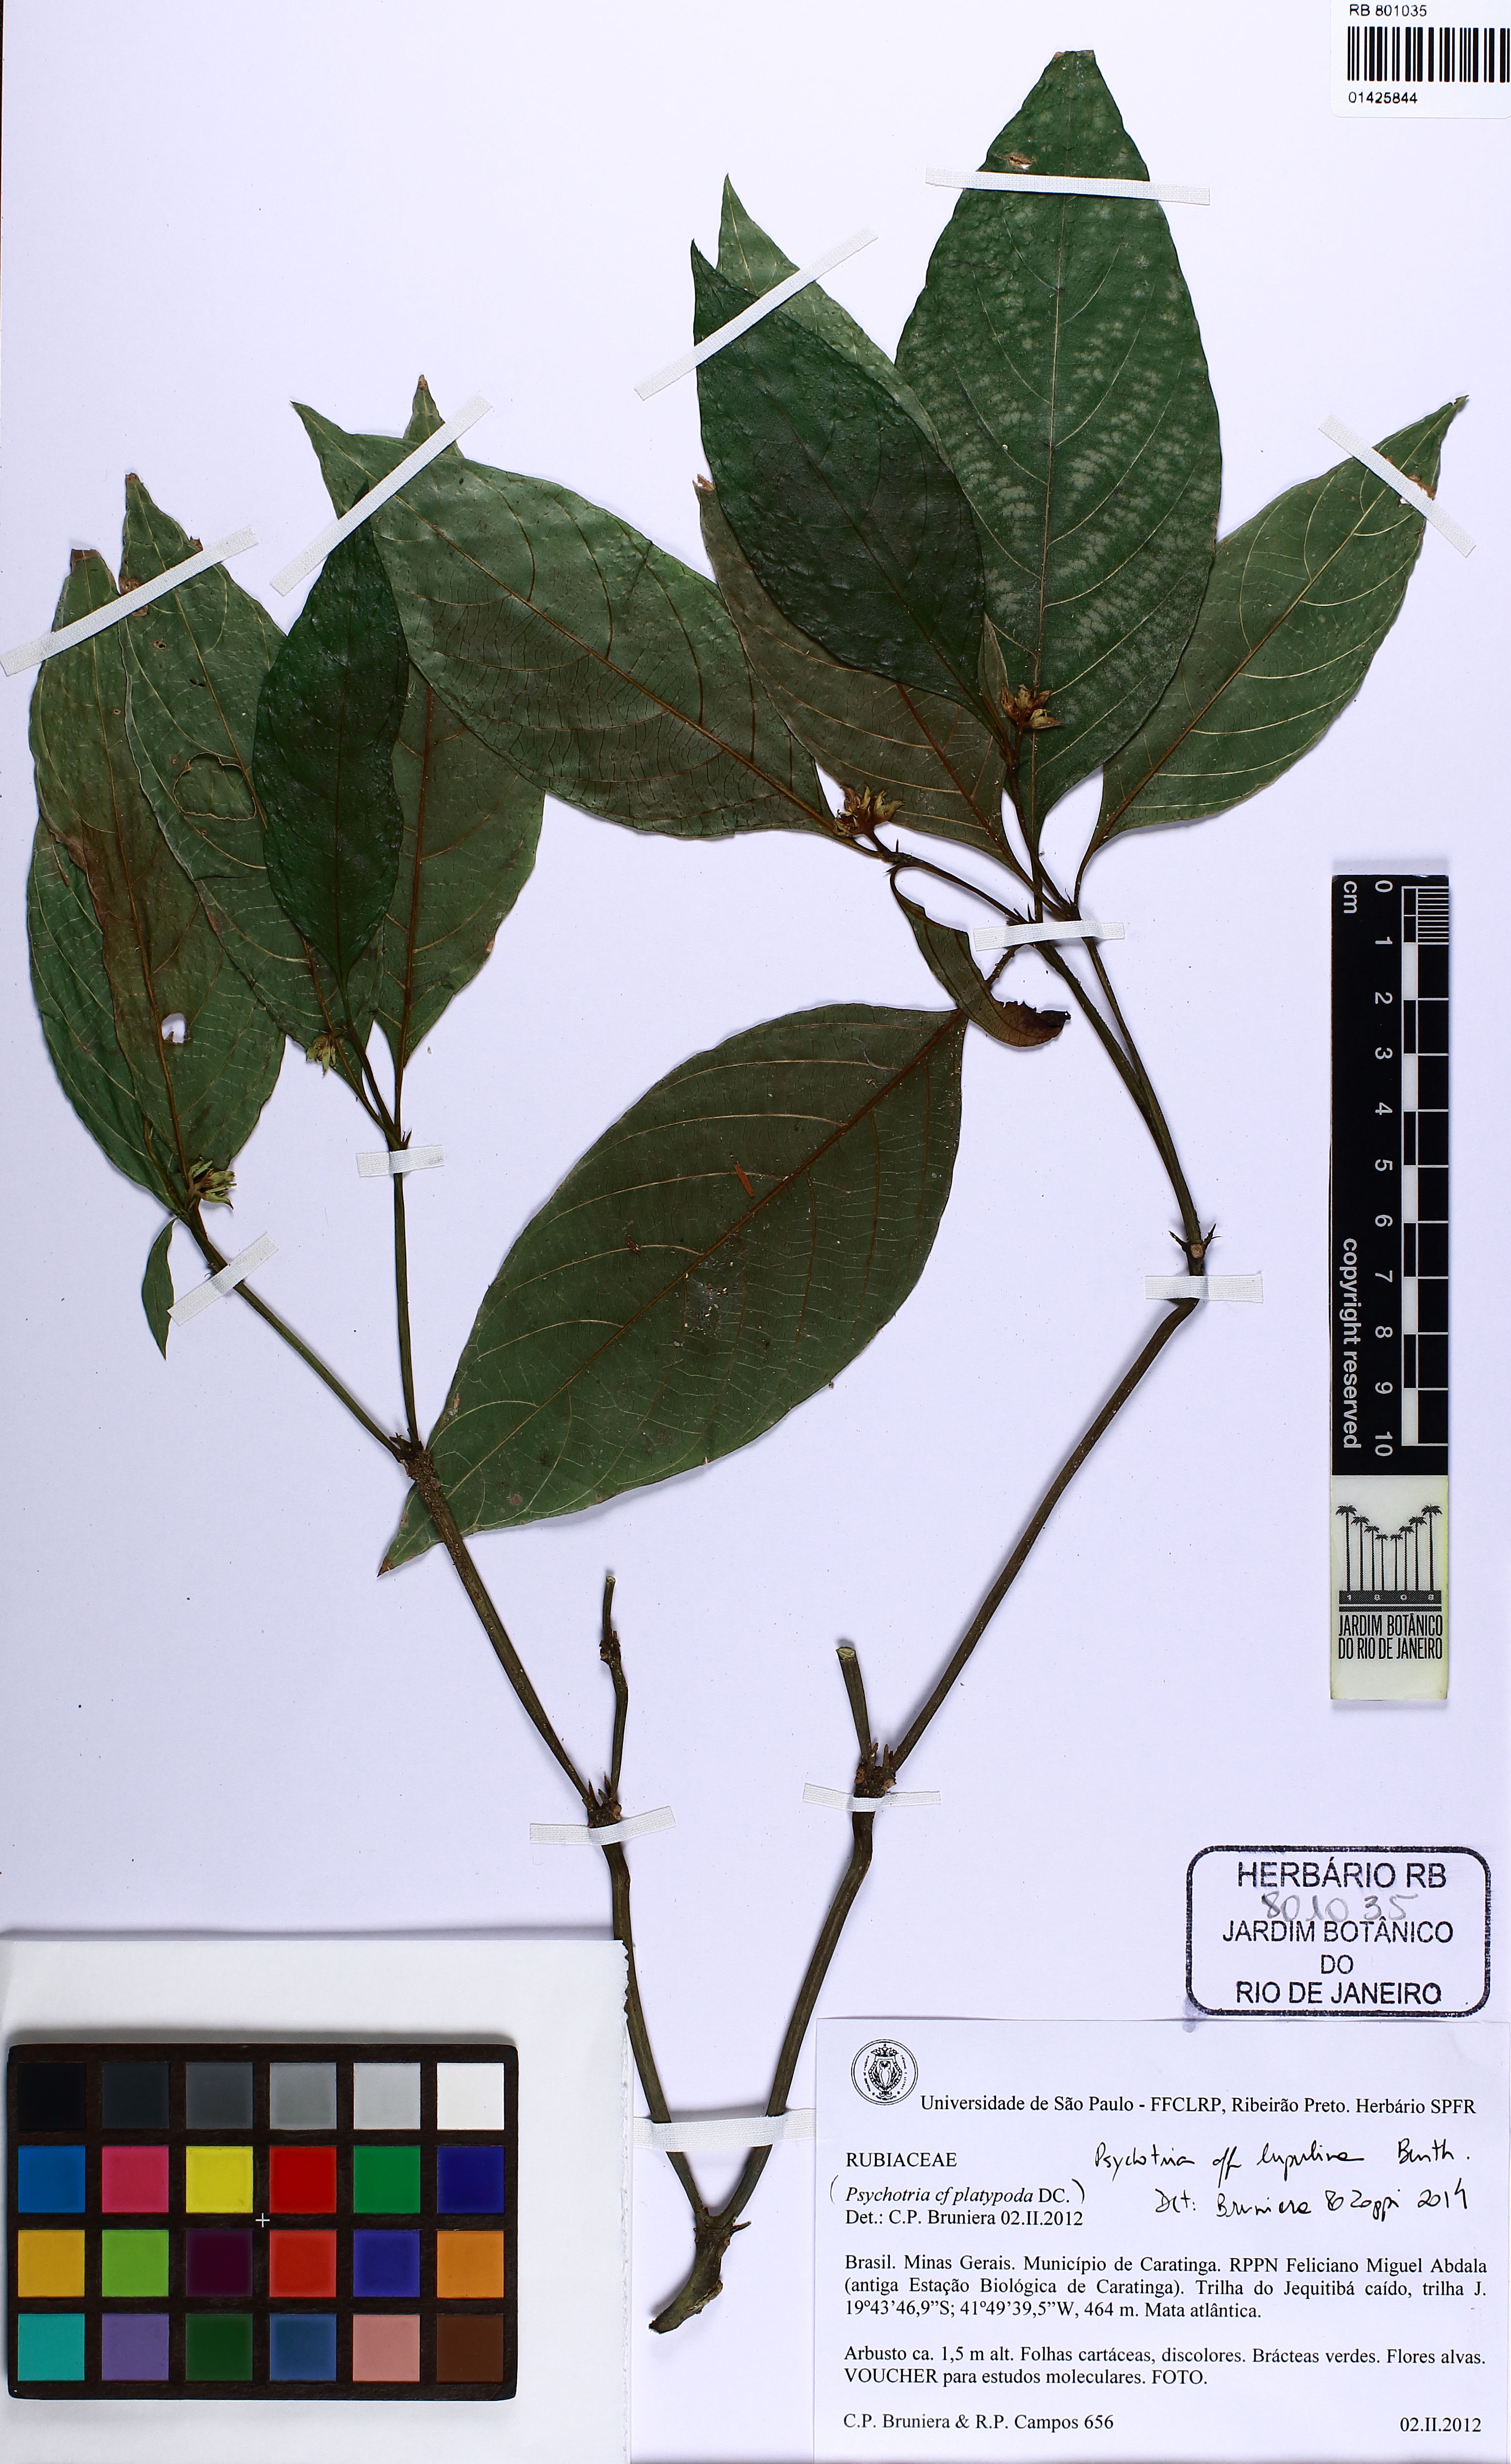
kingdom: Plantae
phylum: Tracheophyta
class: Magnoliopsida
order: Gentianales
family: Rubiaceae
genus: Palicourea
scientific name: Palicourea gracilenta
